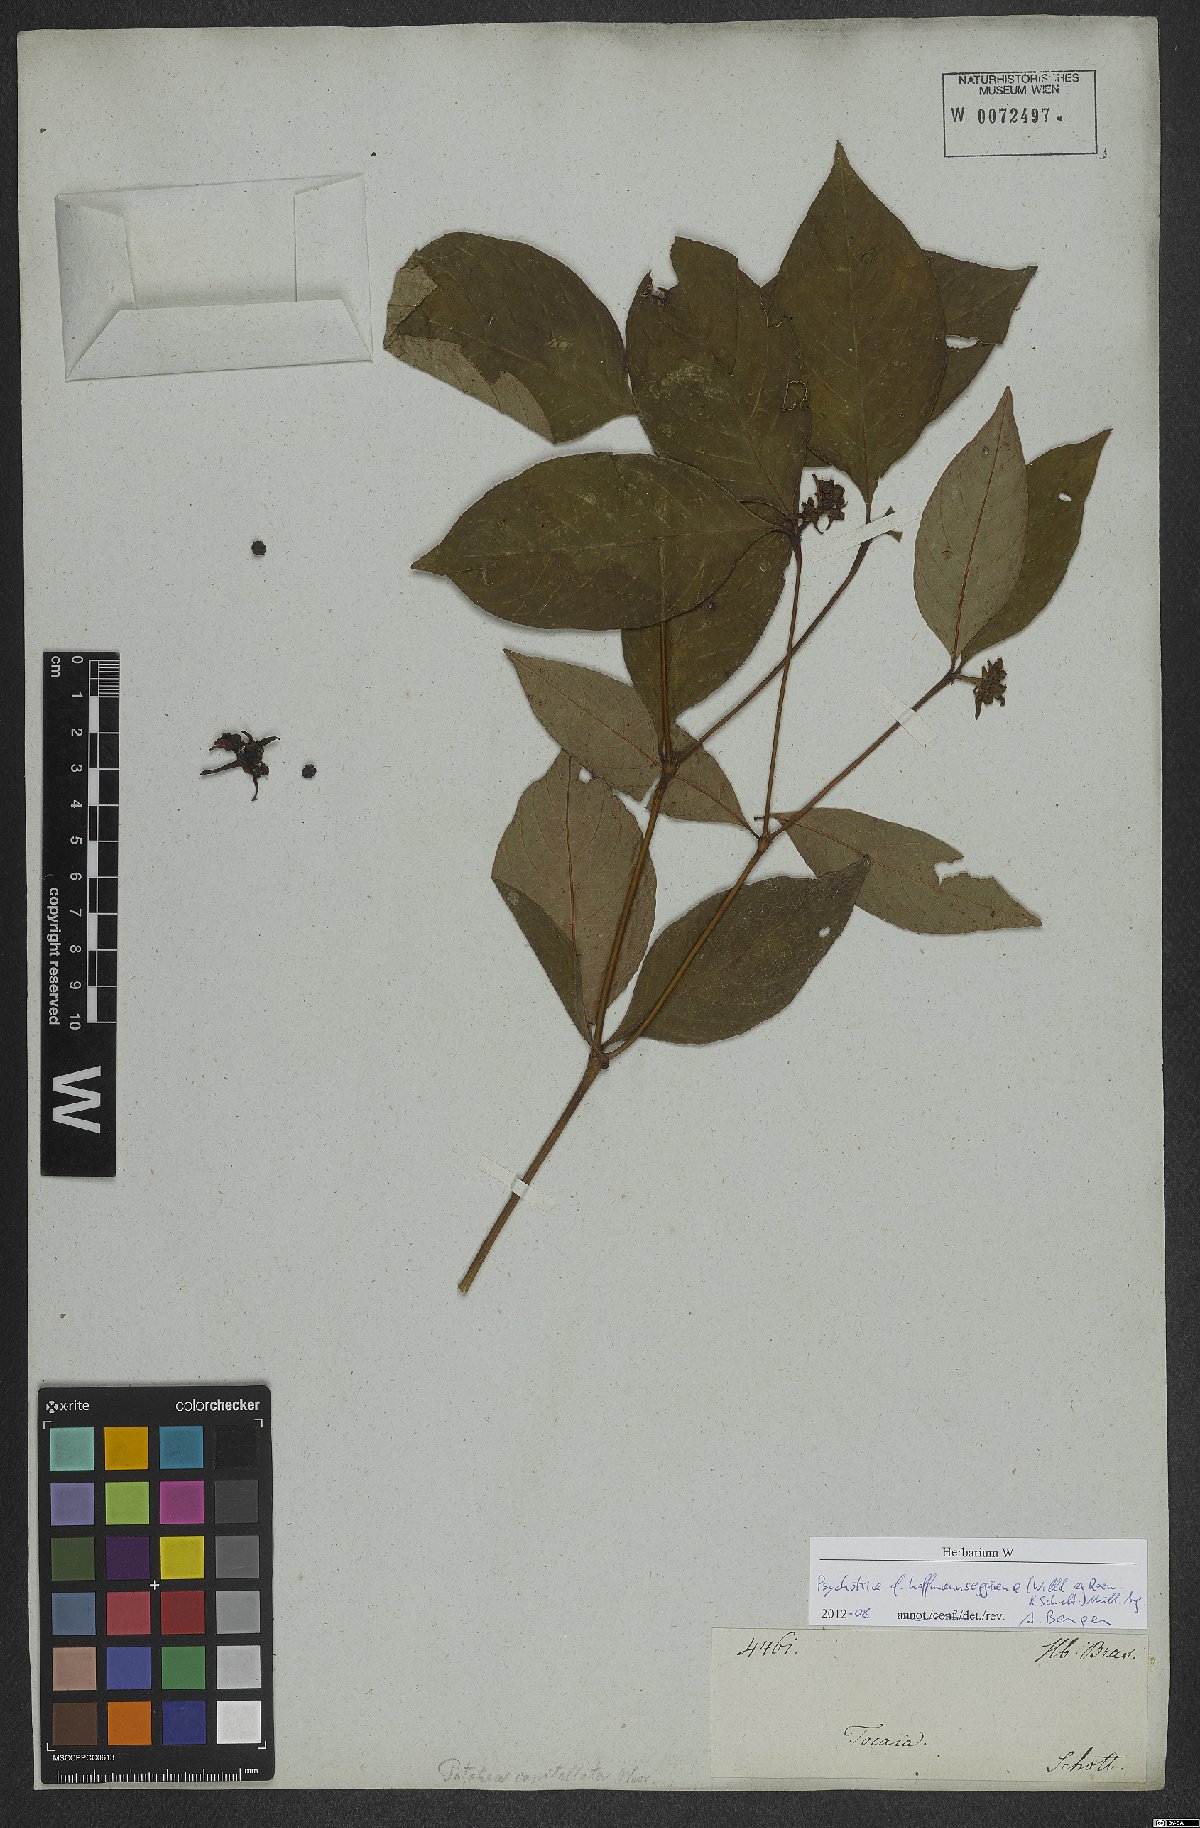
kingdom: Plantae
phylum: Tracheophyta
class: Magnoliopsida
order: Gentianales
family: Rubiaceae
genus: Palicourea
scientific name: Palicourea hoffmannseggiana
